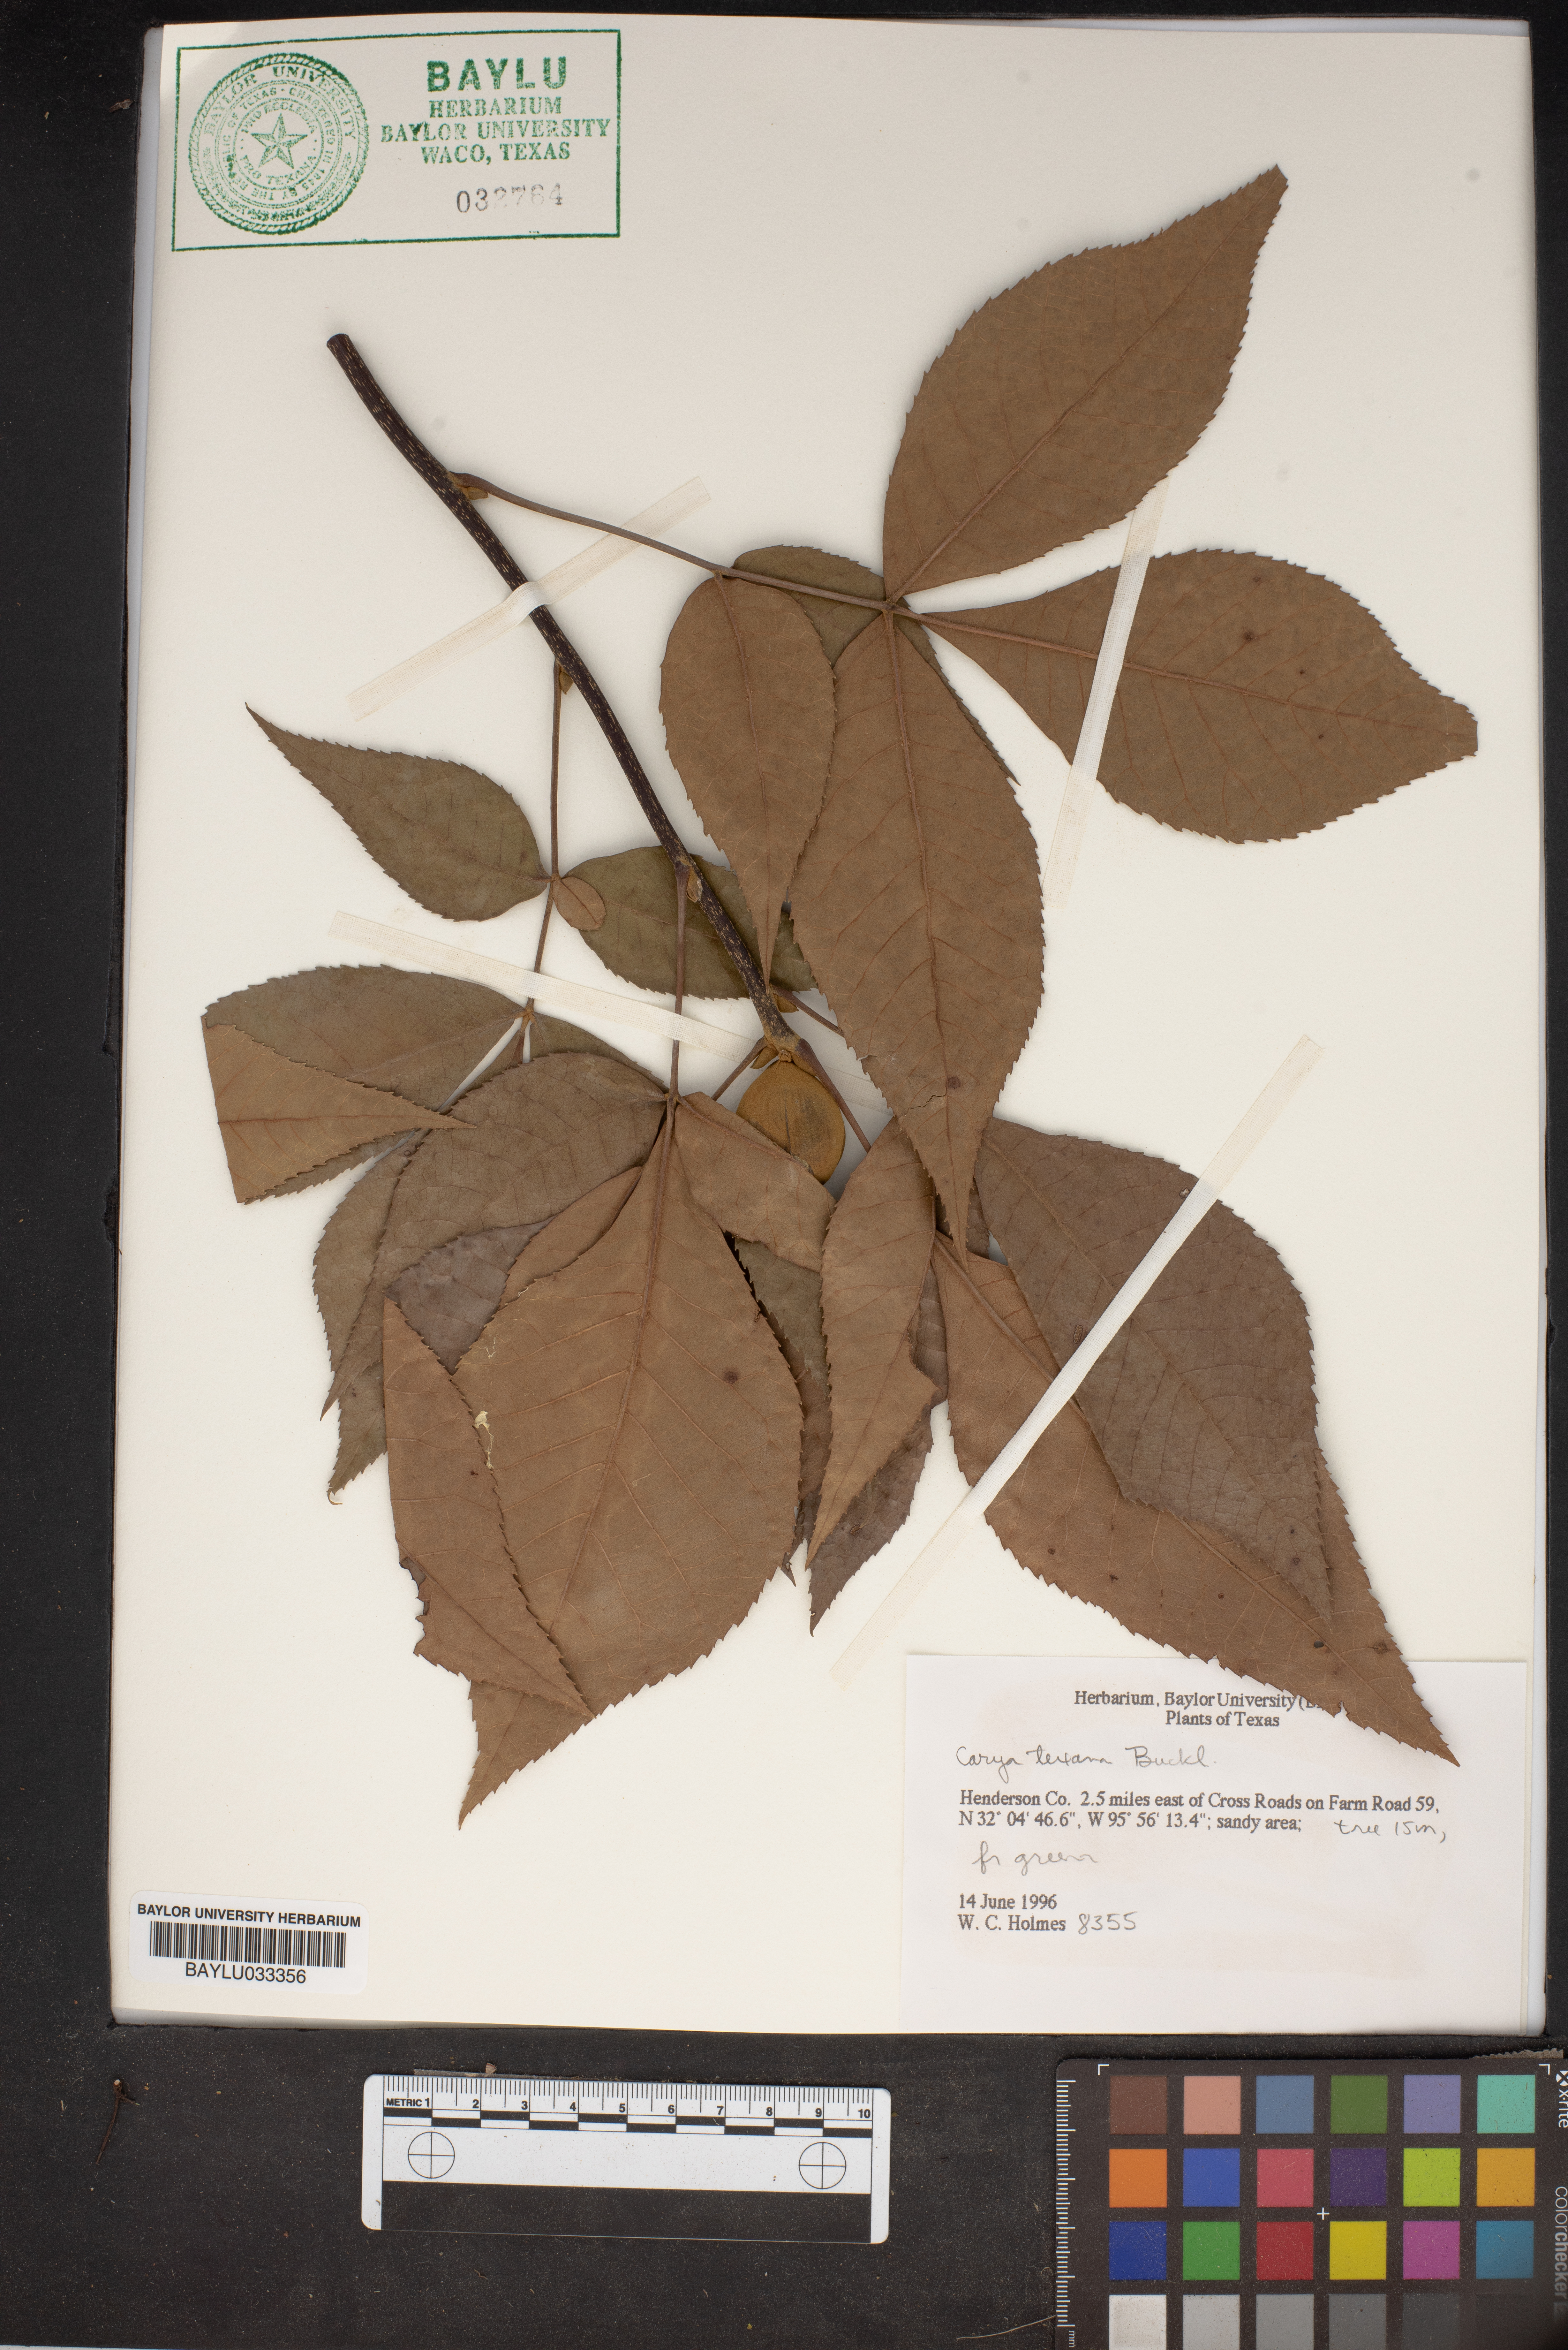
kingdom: Plantae
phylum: Tracheophyta
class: Magnoliopsida
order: Fagales
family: Juglandaceae
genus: Carya
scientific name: Carya texana
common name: Black hickory
